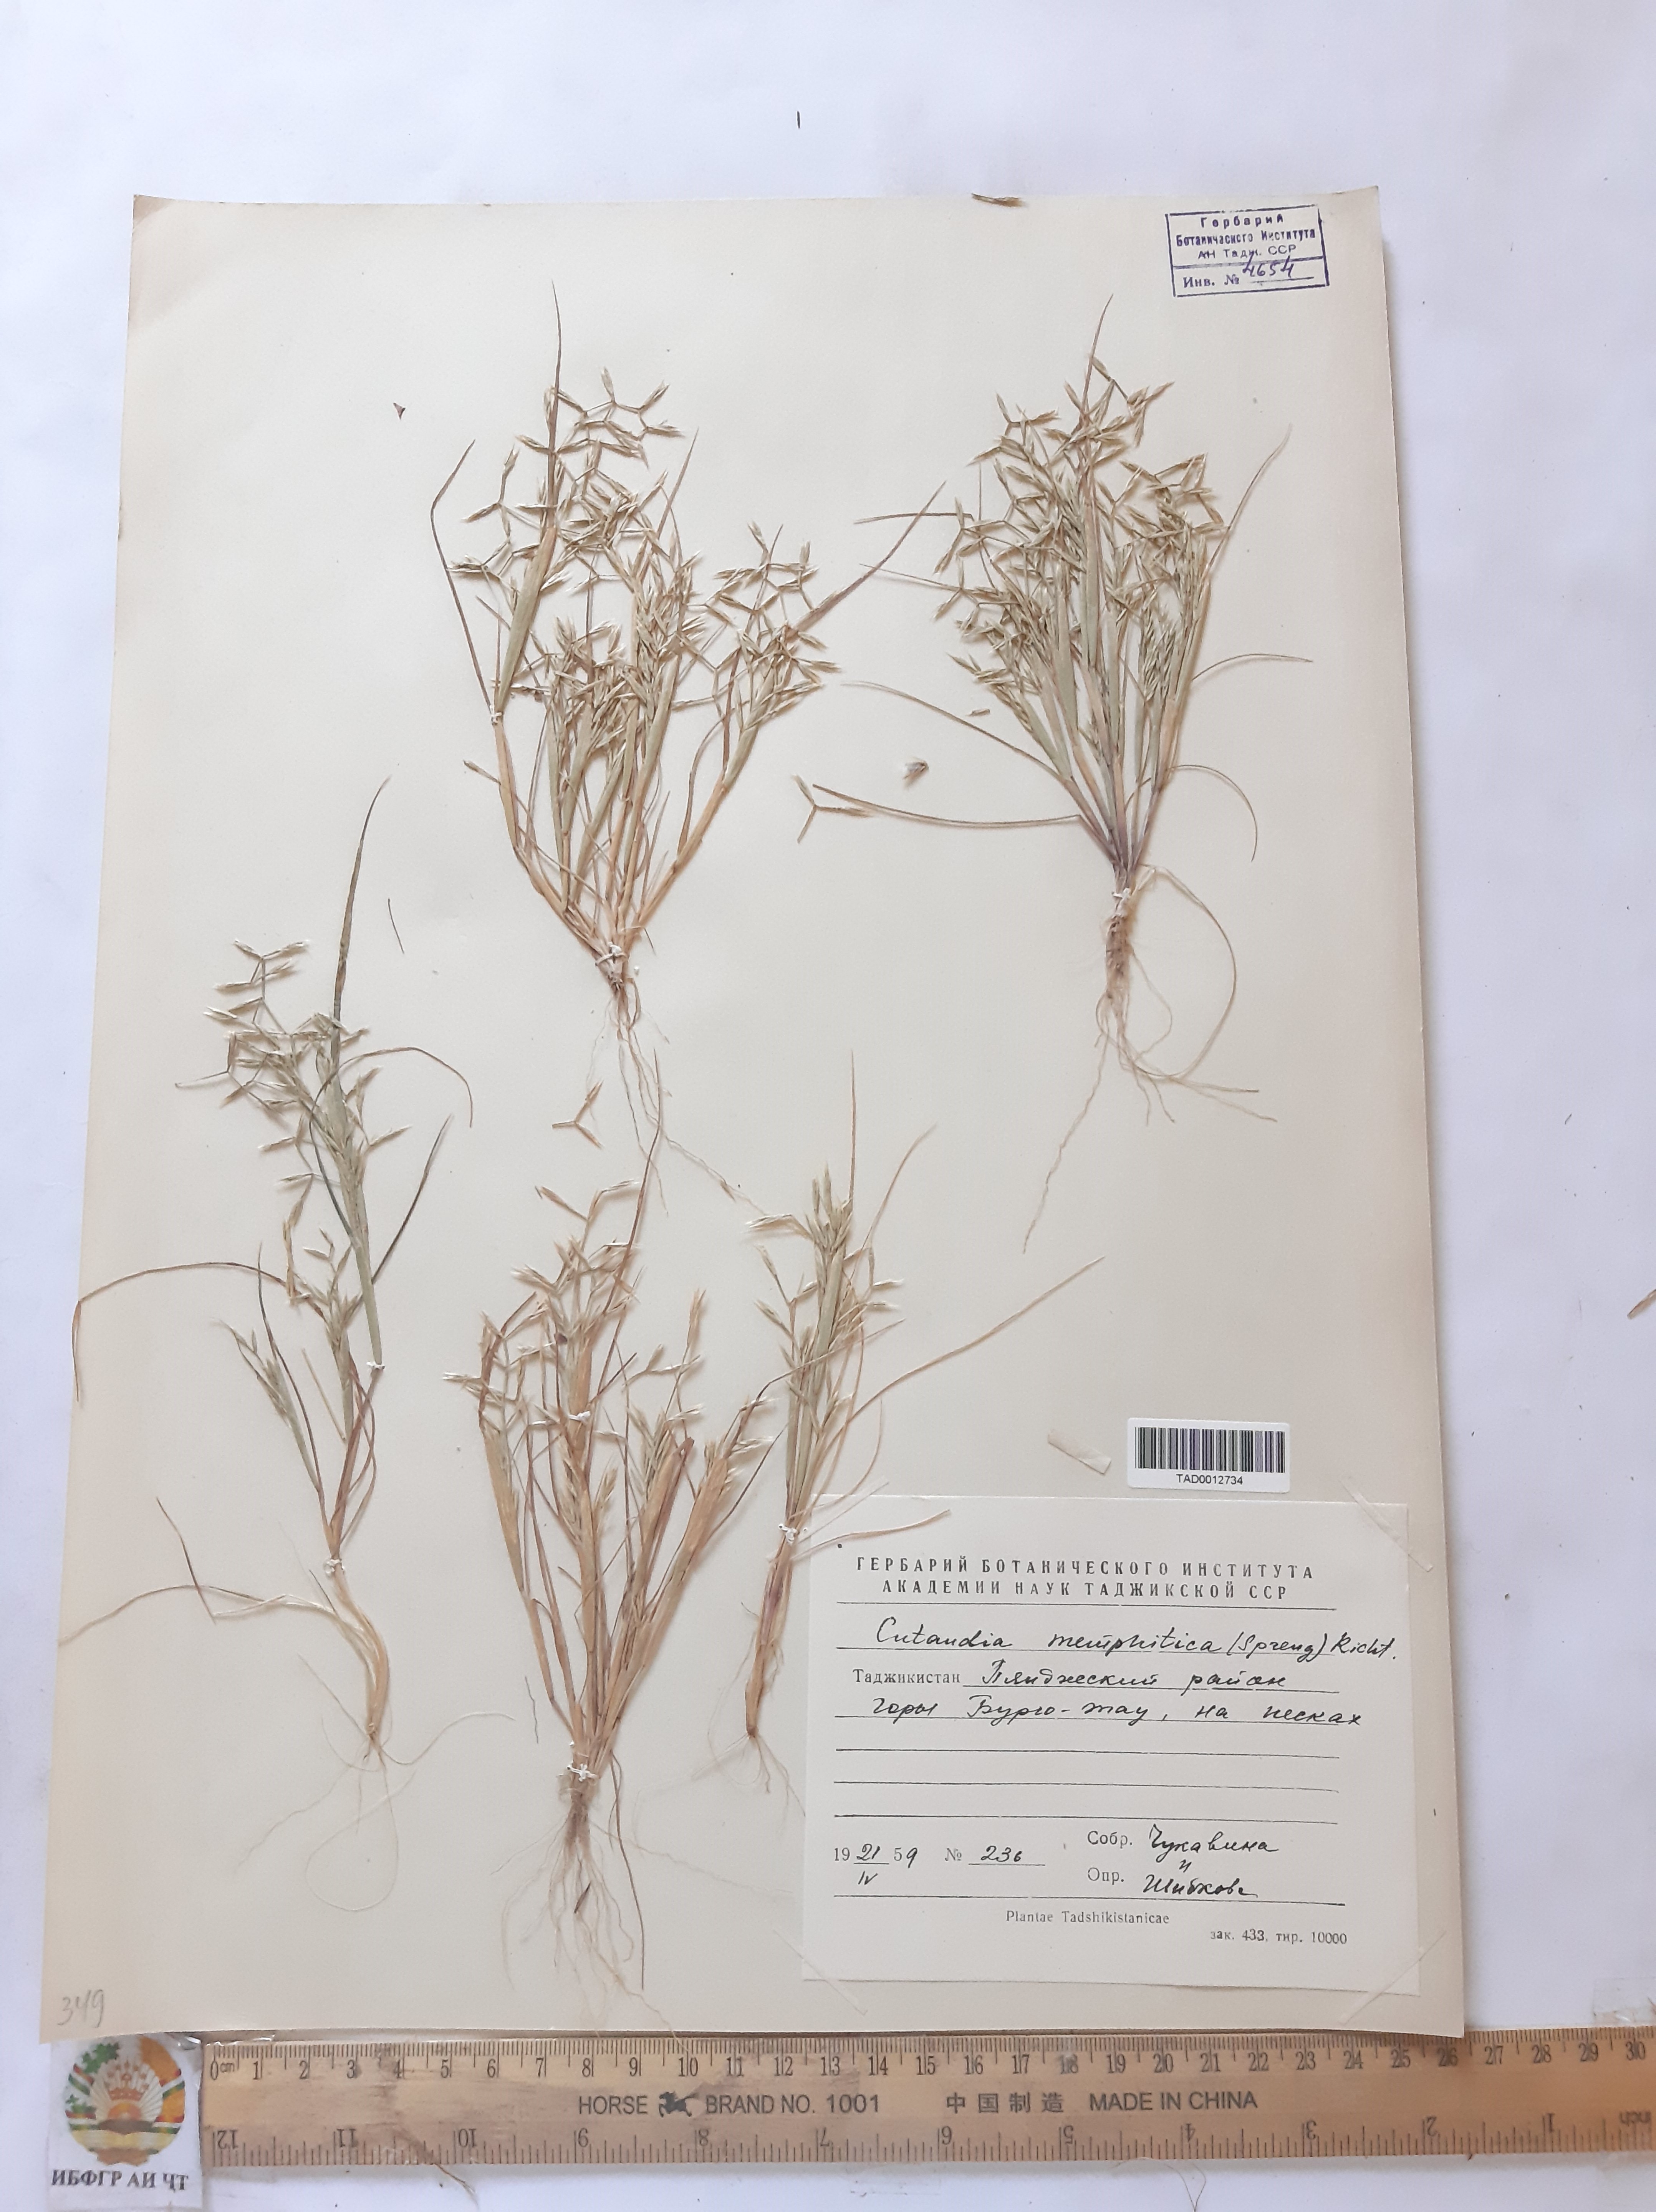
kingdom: Plantae
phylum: Tracheophyta
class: Liliopsida
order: Poales
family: Poaceae
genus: Cutandia
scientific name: Cutandia memphitica
